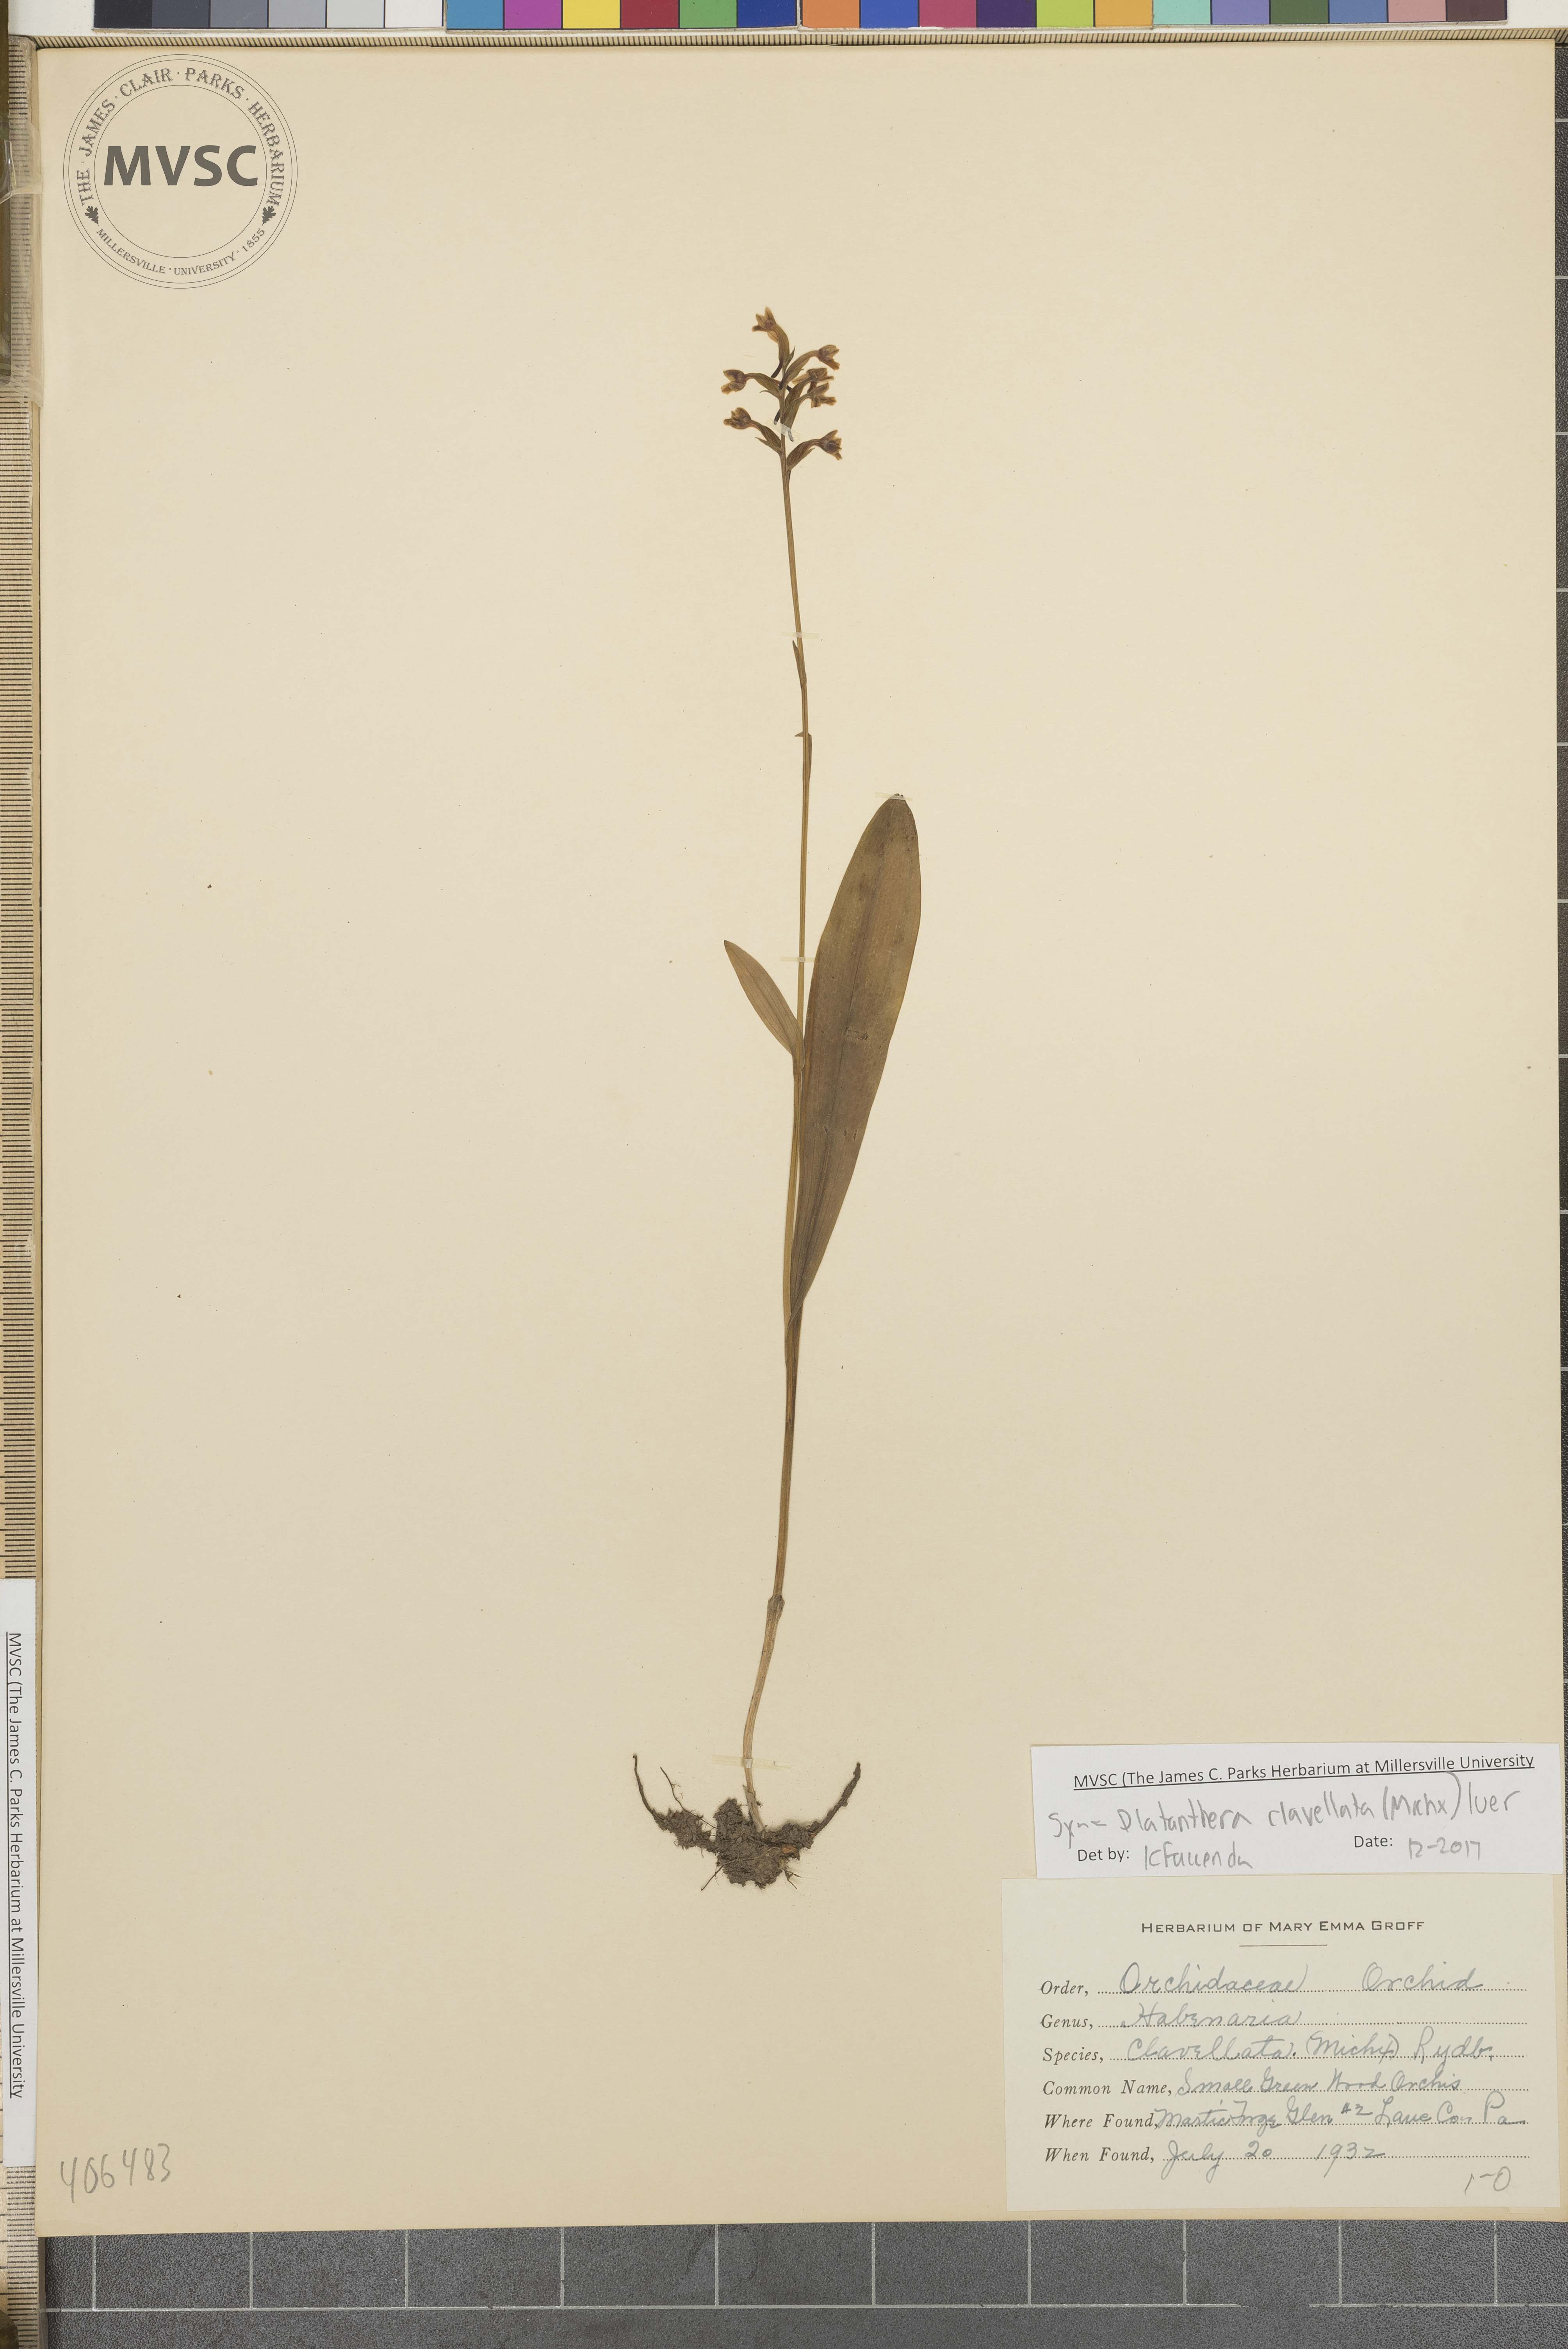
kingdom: Plantae
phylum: Tracheophyta
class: Liliopsida
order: Asparagales
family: Orchidaceae
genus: Platanthera
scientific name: Platanthera clavellata
